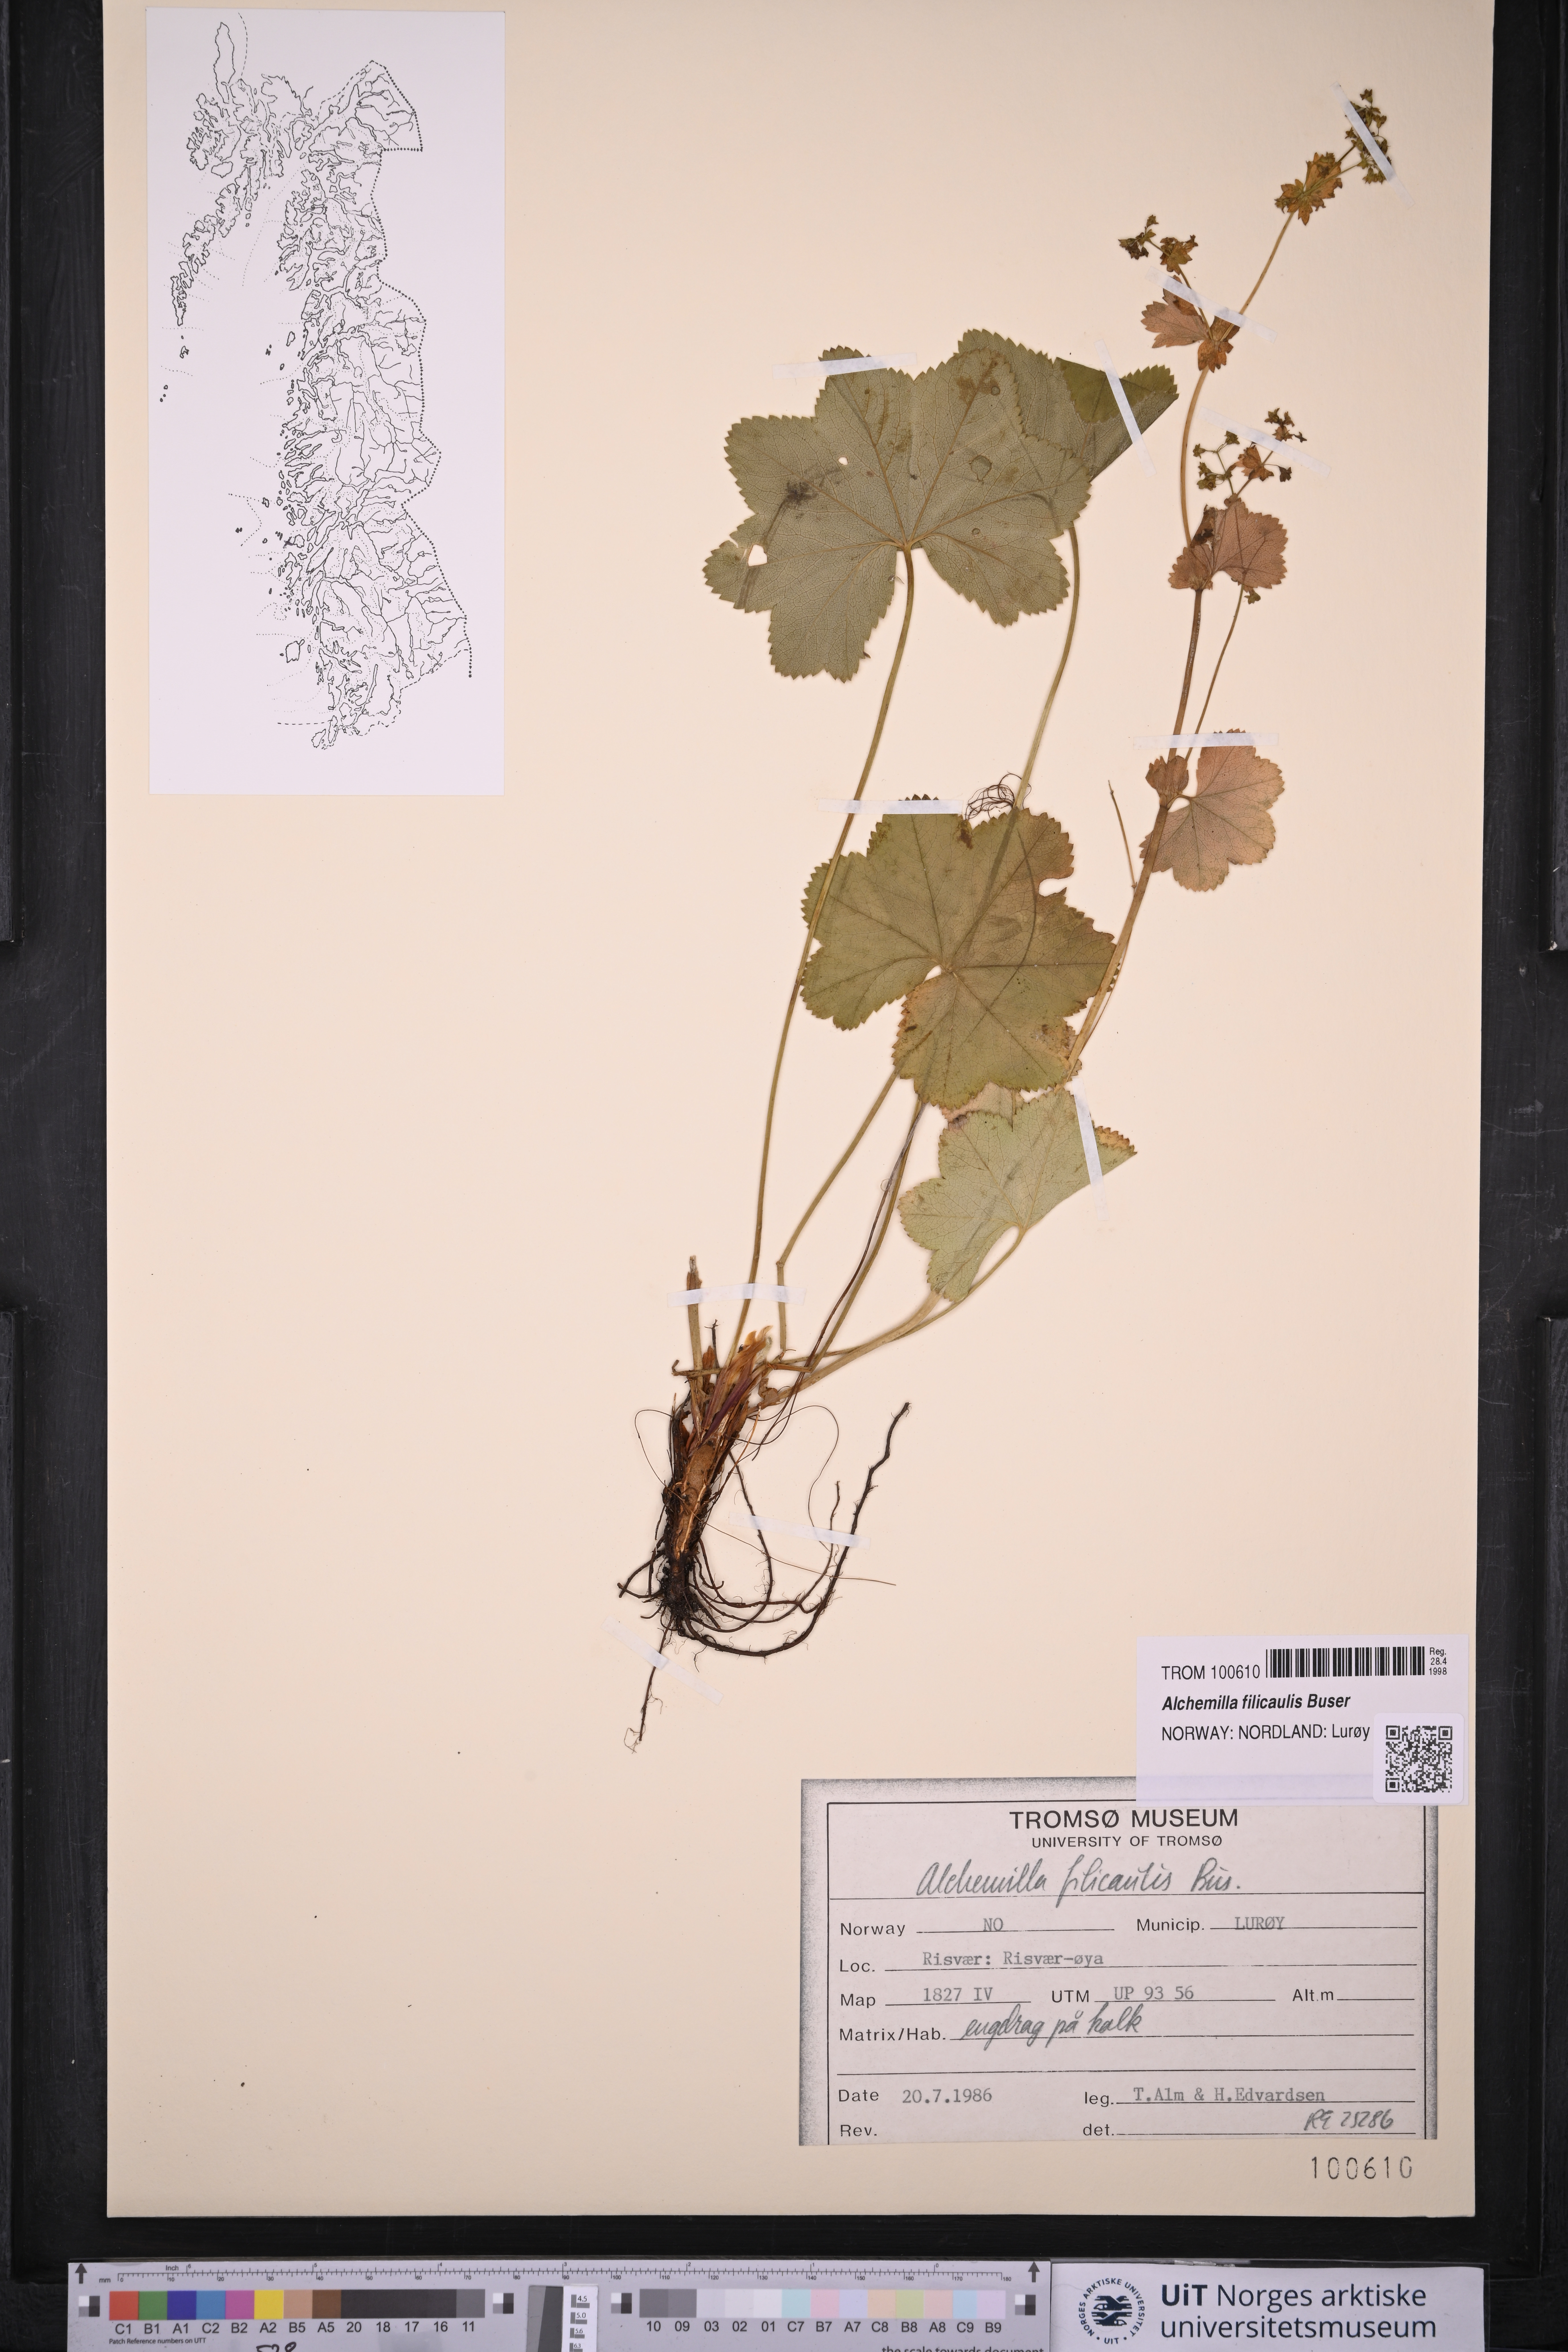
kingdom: Plantae
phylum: Tracheophyta
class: Magnoliopsida
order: Rosales
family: Rosaceae
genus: Alchemilla
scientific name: Alchemilla filicaulis
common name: Hairy lady's-mantle
